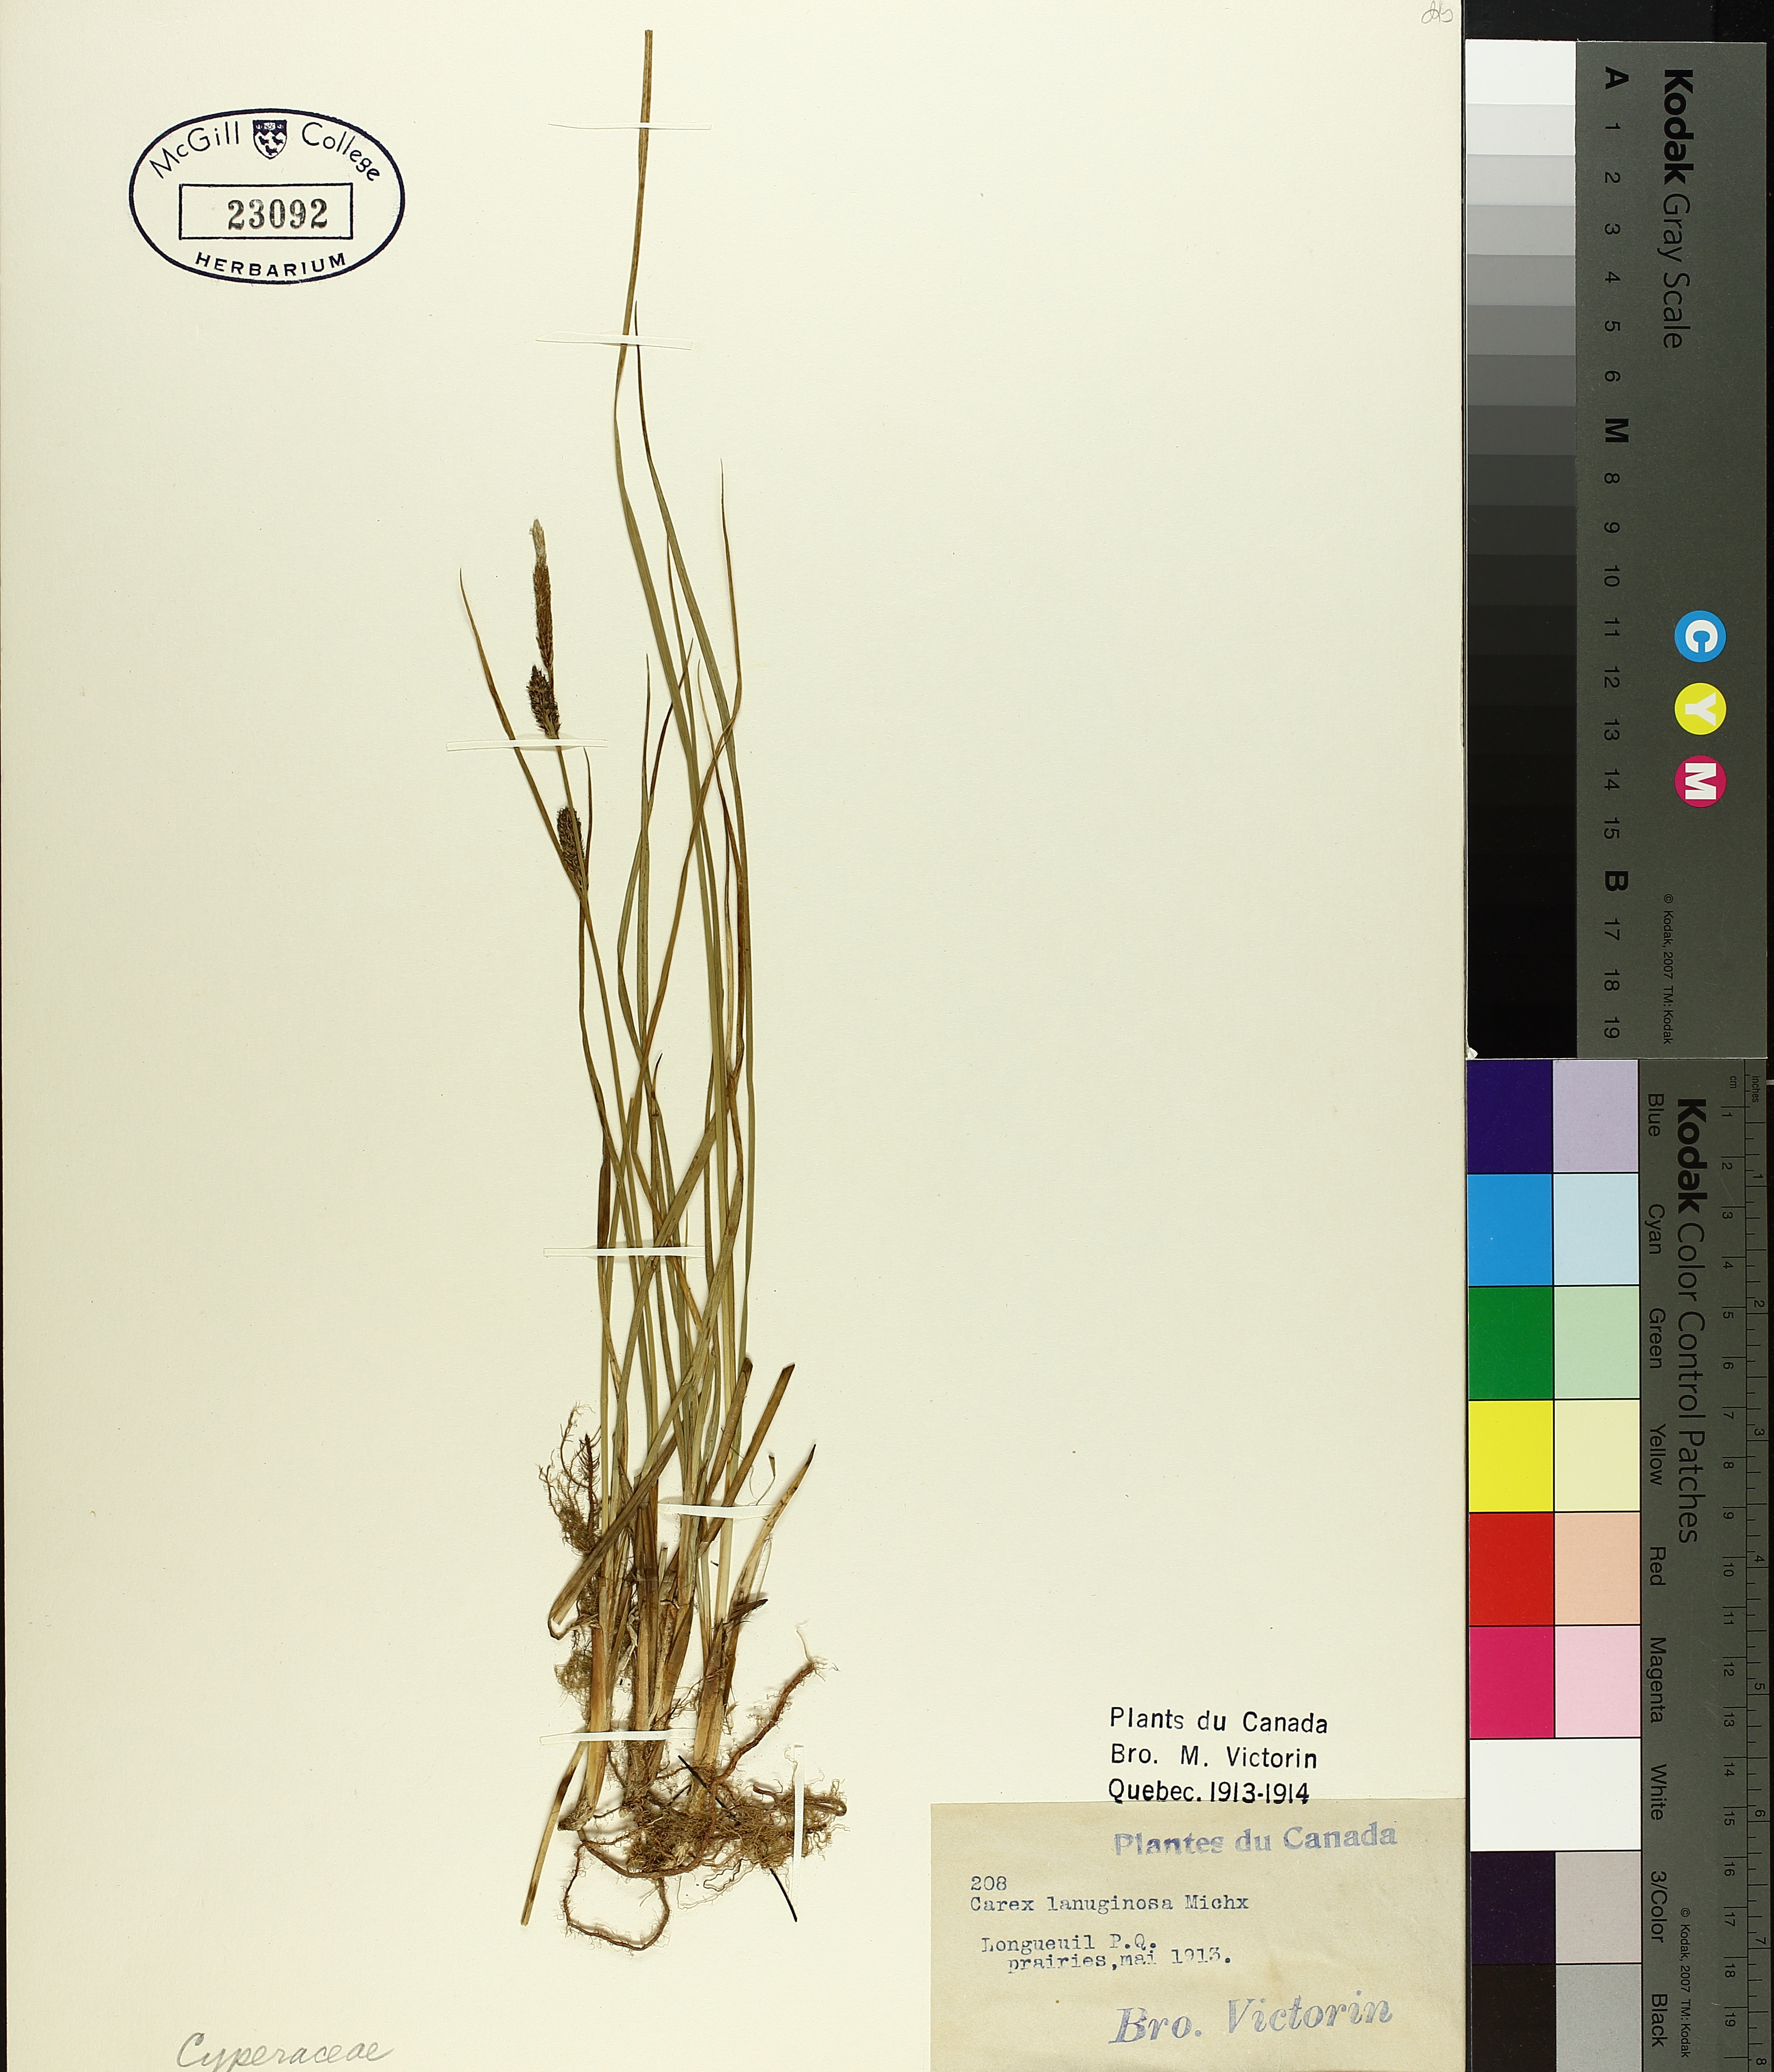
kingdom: Plantae
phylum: Tracheophyta
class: Liliopsida
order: Poales
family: Cyperaceae
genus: Carex
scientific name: Carex pellita
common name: Woolly sedge
